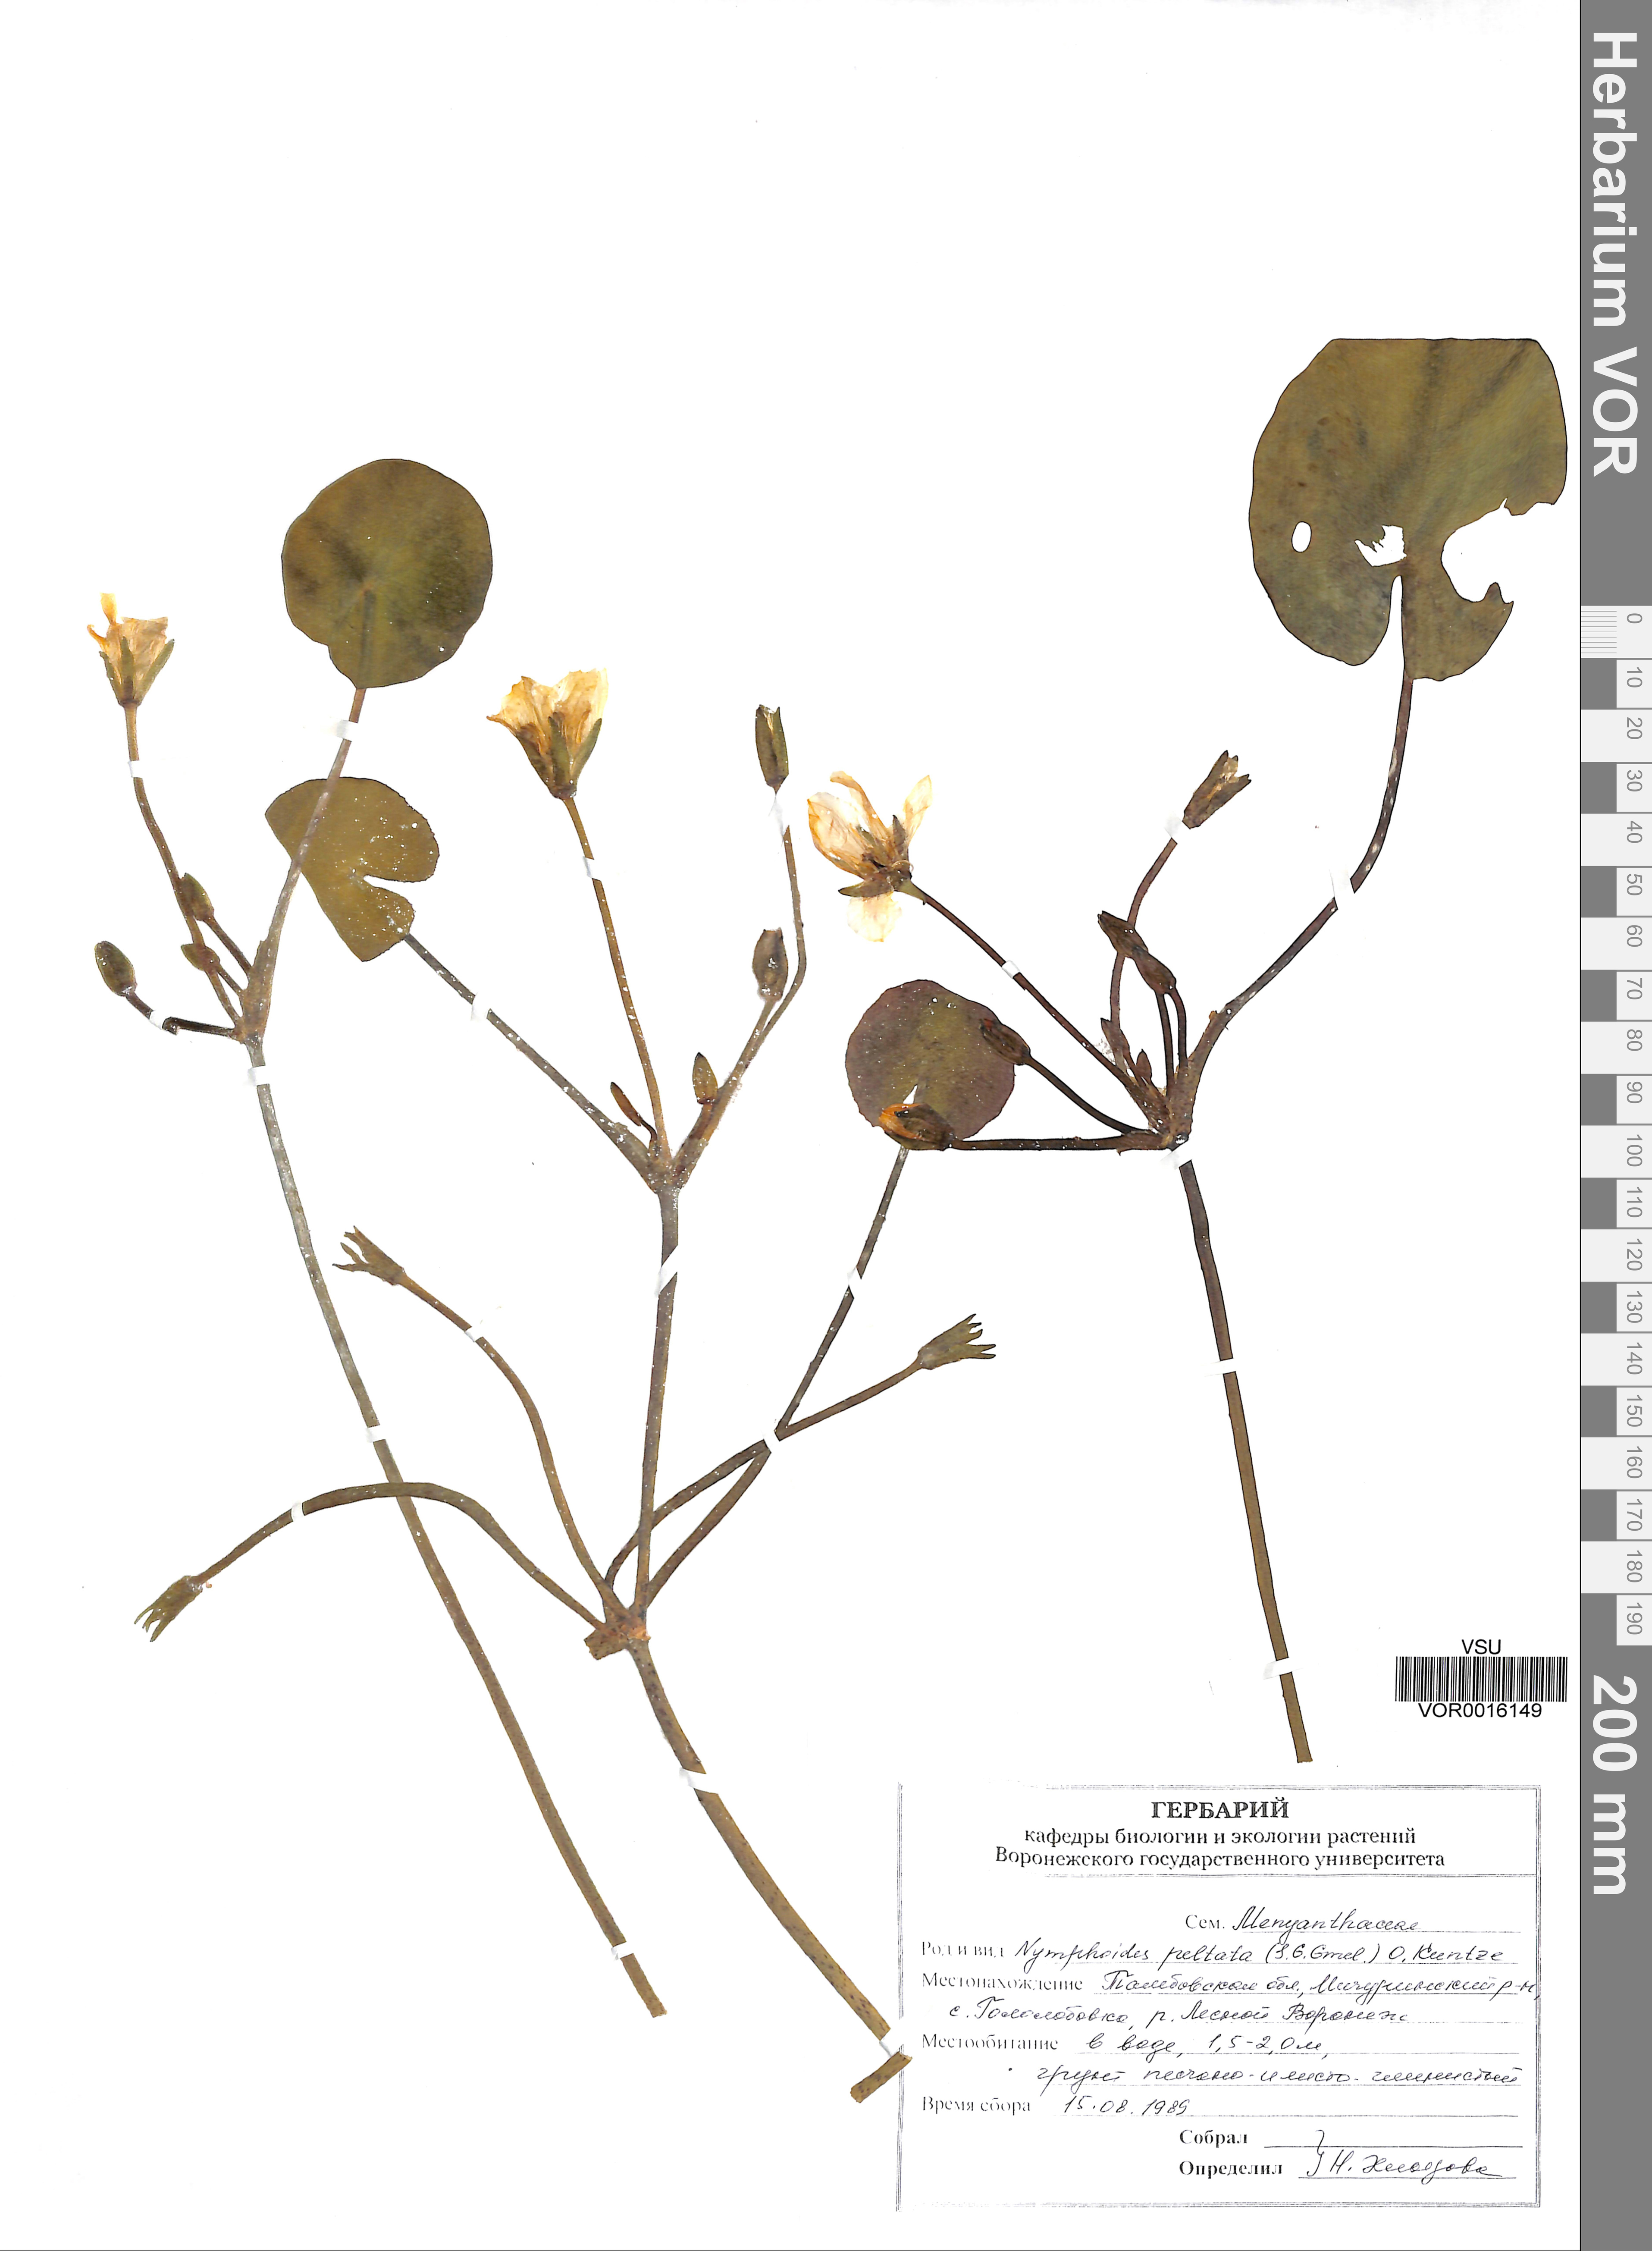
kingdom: Plantae
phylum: Tracheophyta
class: Magnoliopsida
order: Asterales
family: Menyanthaceae
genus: Nymphoides
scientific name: Nymphoides peltata
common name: Fringed water-lily
